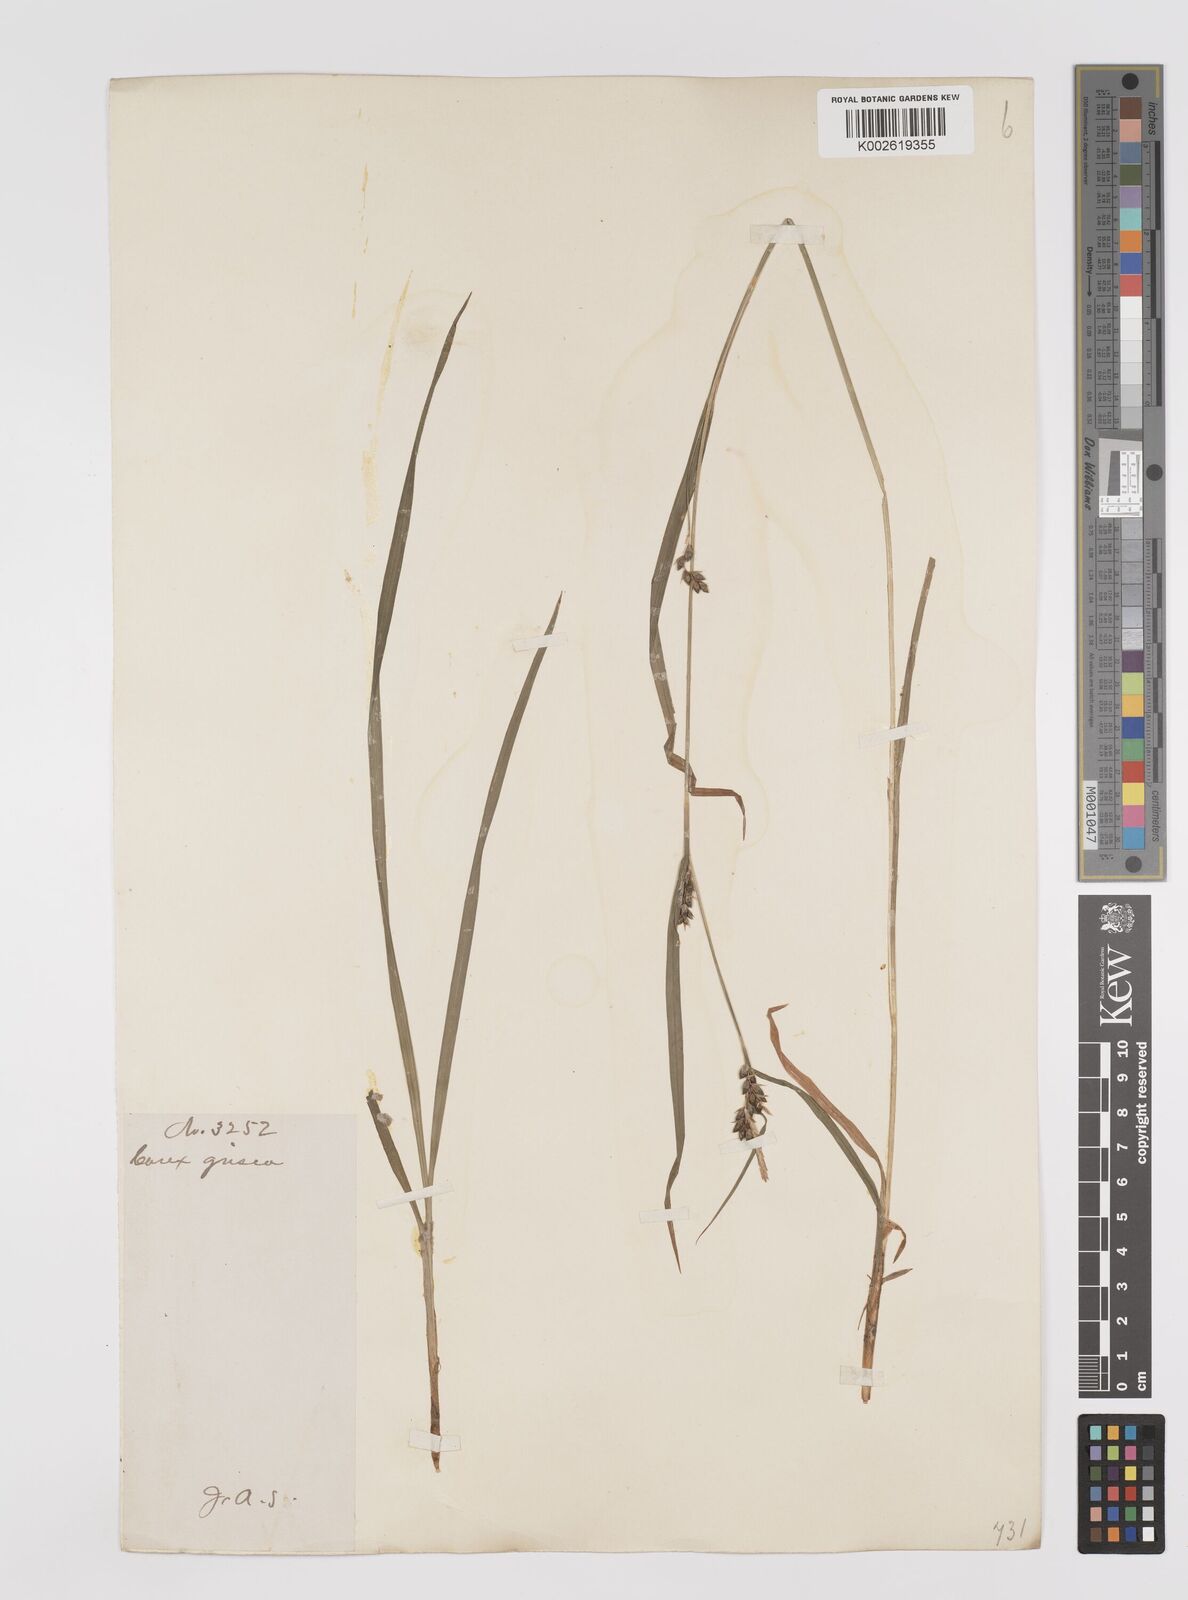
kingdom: Plantae
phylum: Tracheophyta
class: Liliopsida
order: Poales
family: Cyperaceae
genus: Carex
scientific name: Carex grisea
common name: Eastern narrow-leaved sedge
